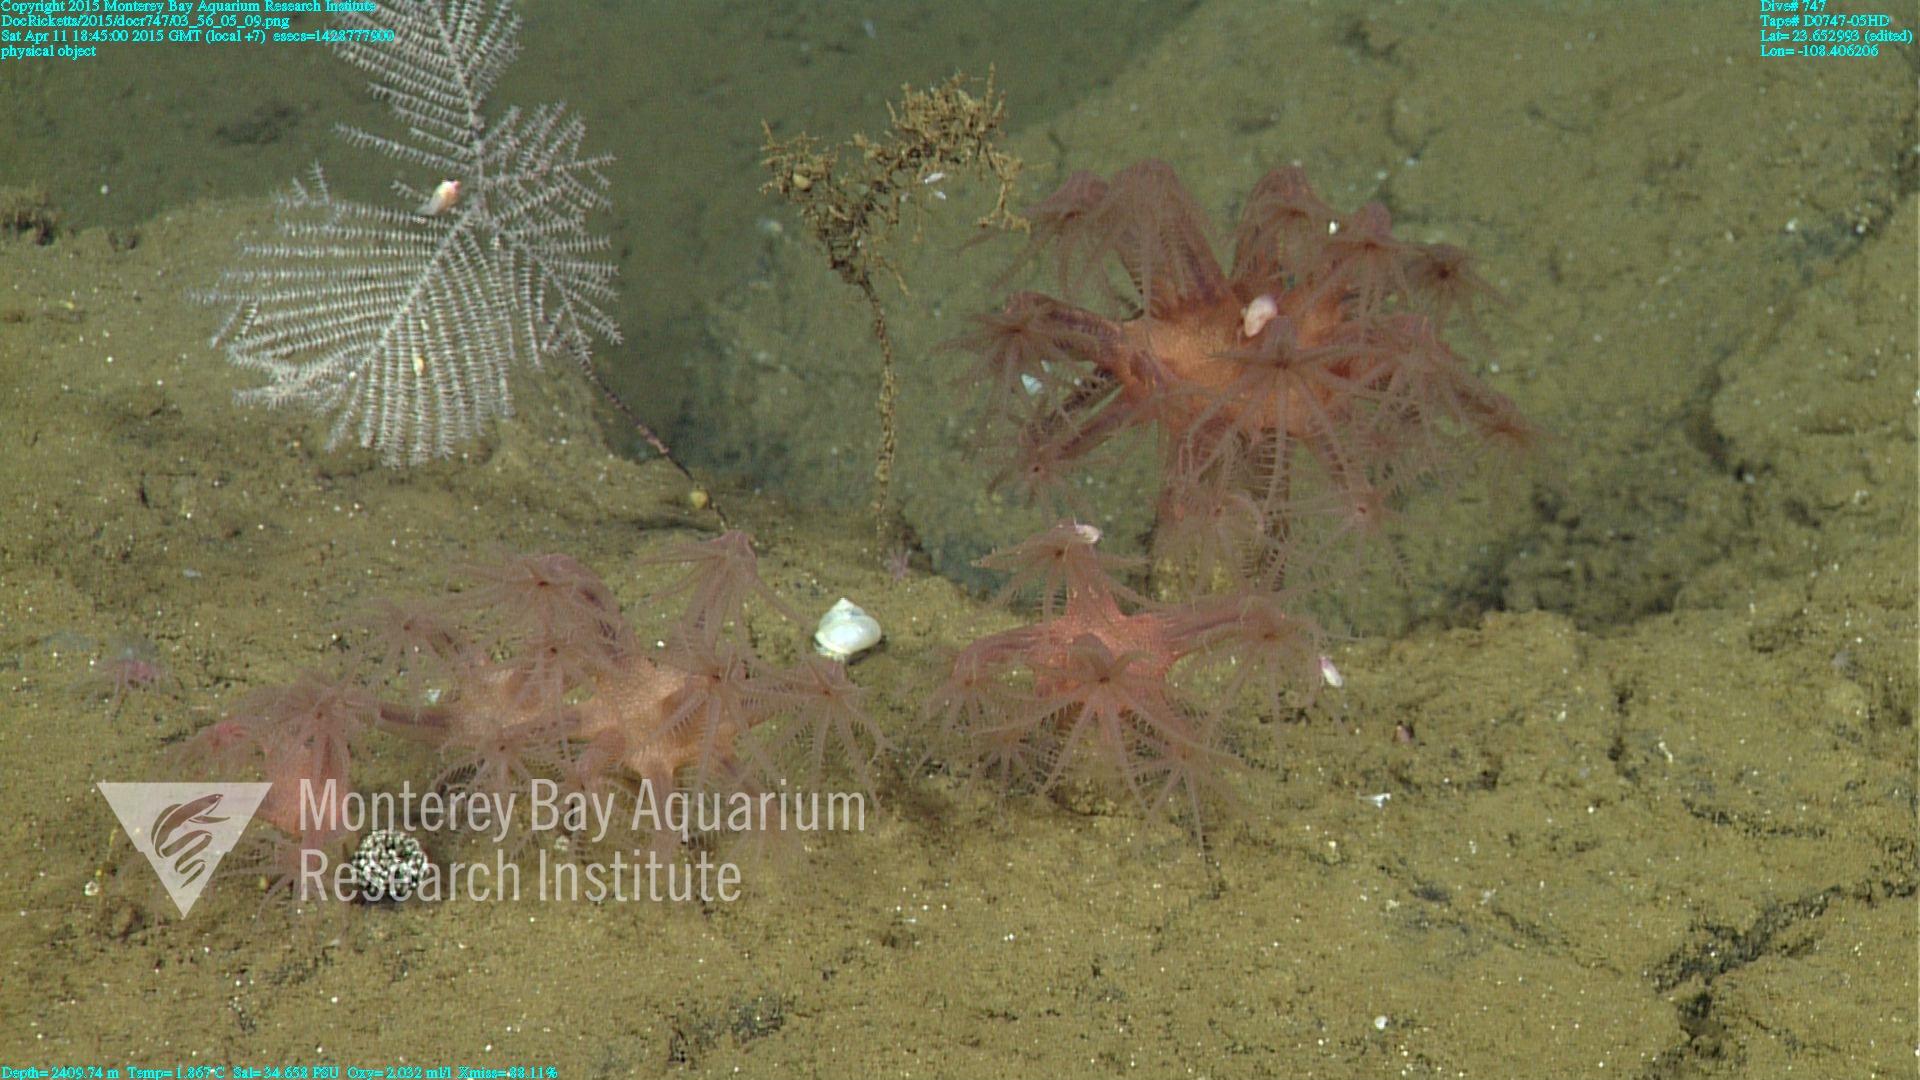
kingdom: Animalia
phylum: Cnidaria
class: Anthozoa
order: Scleralcyonacea
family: Coralliidae
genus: Heteropolypus
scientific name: Heteropolypus ritteri
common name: Ritter's soft coral
